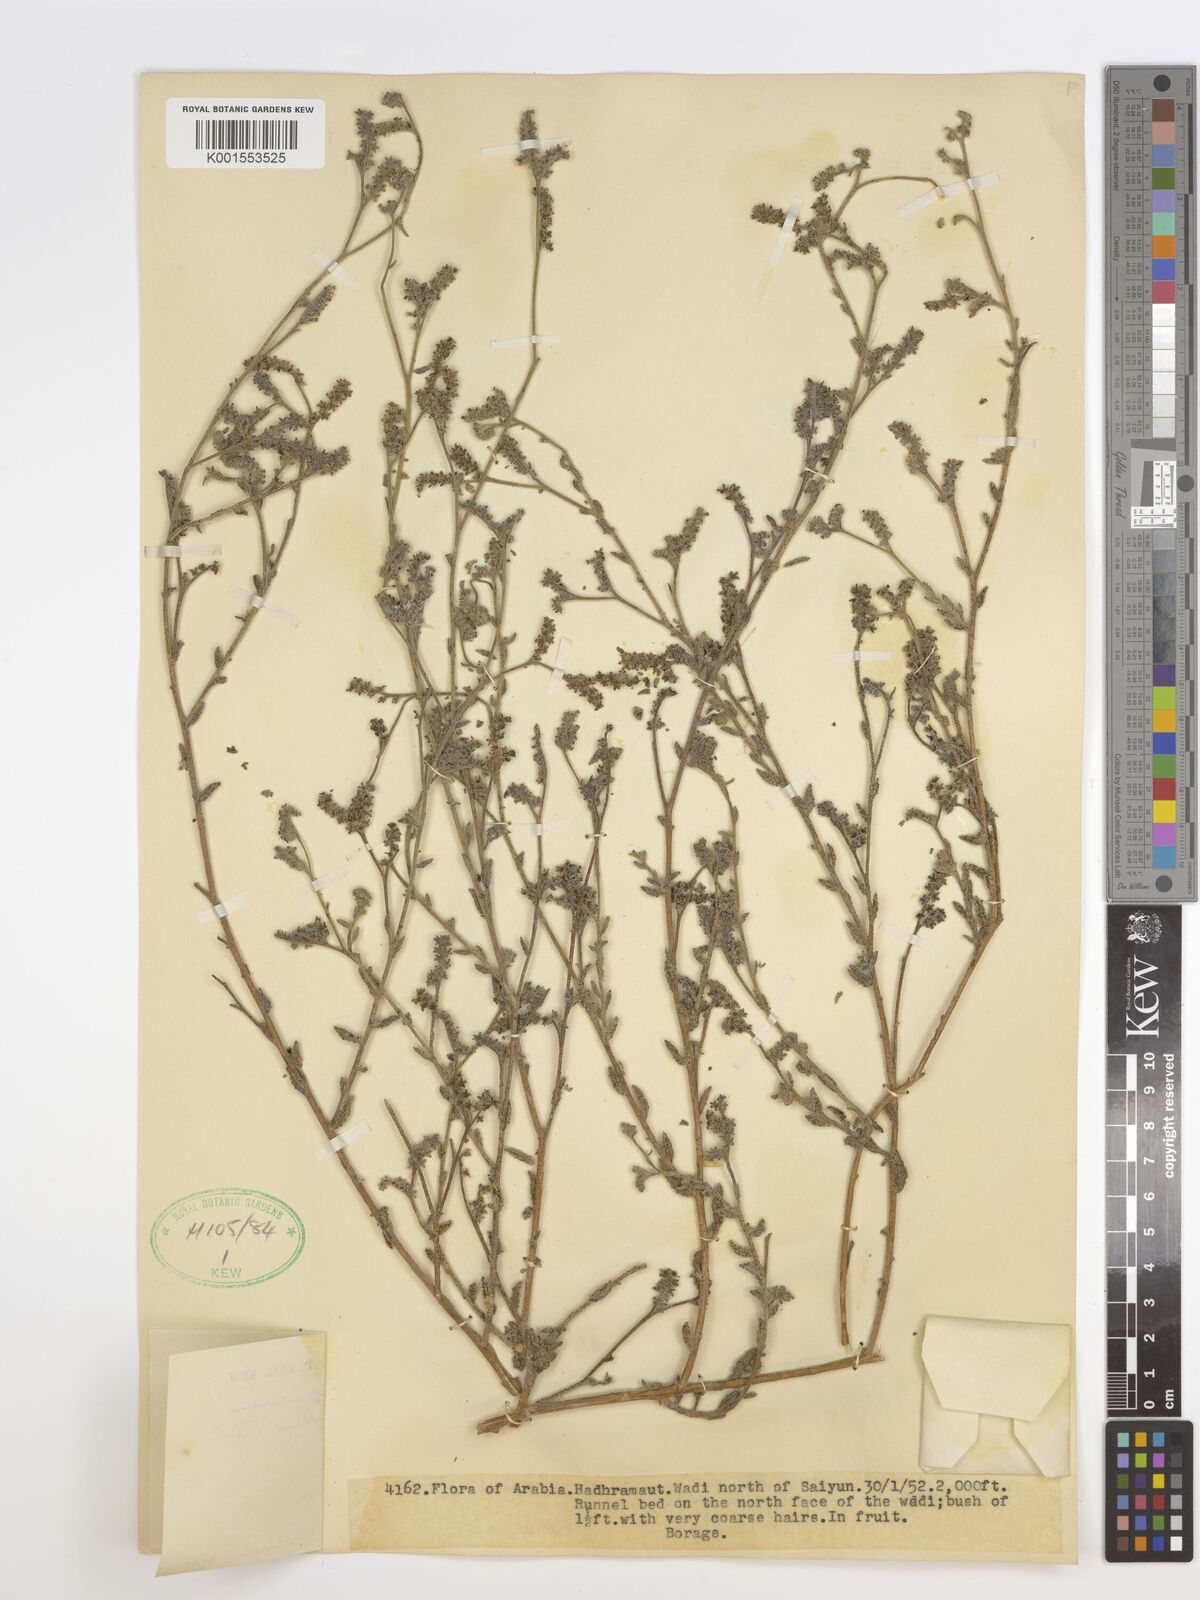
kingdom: Plantae
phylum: Tracheophyta
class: Magnoliopsida
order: Boraginales
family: Heliotropiaceae
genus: Heliotropium
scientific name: Heliotropium ramosissimum
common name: Wavy heliotrope
